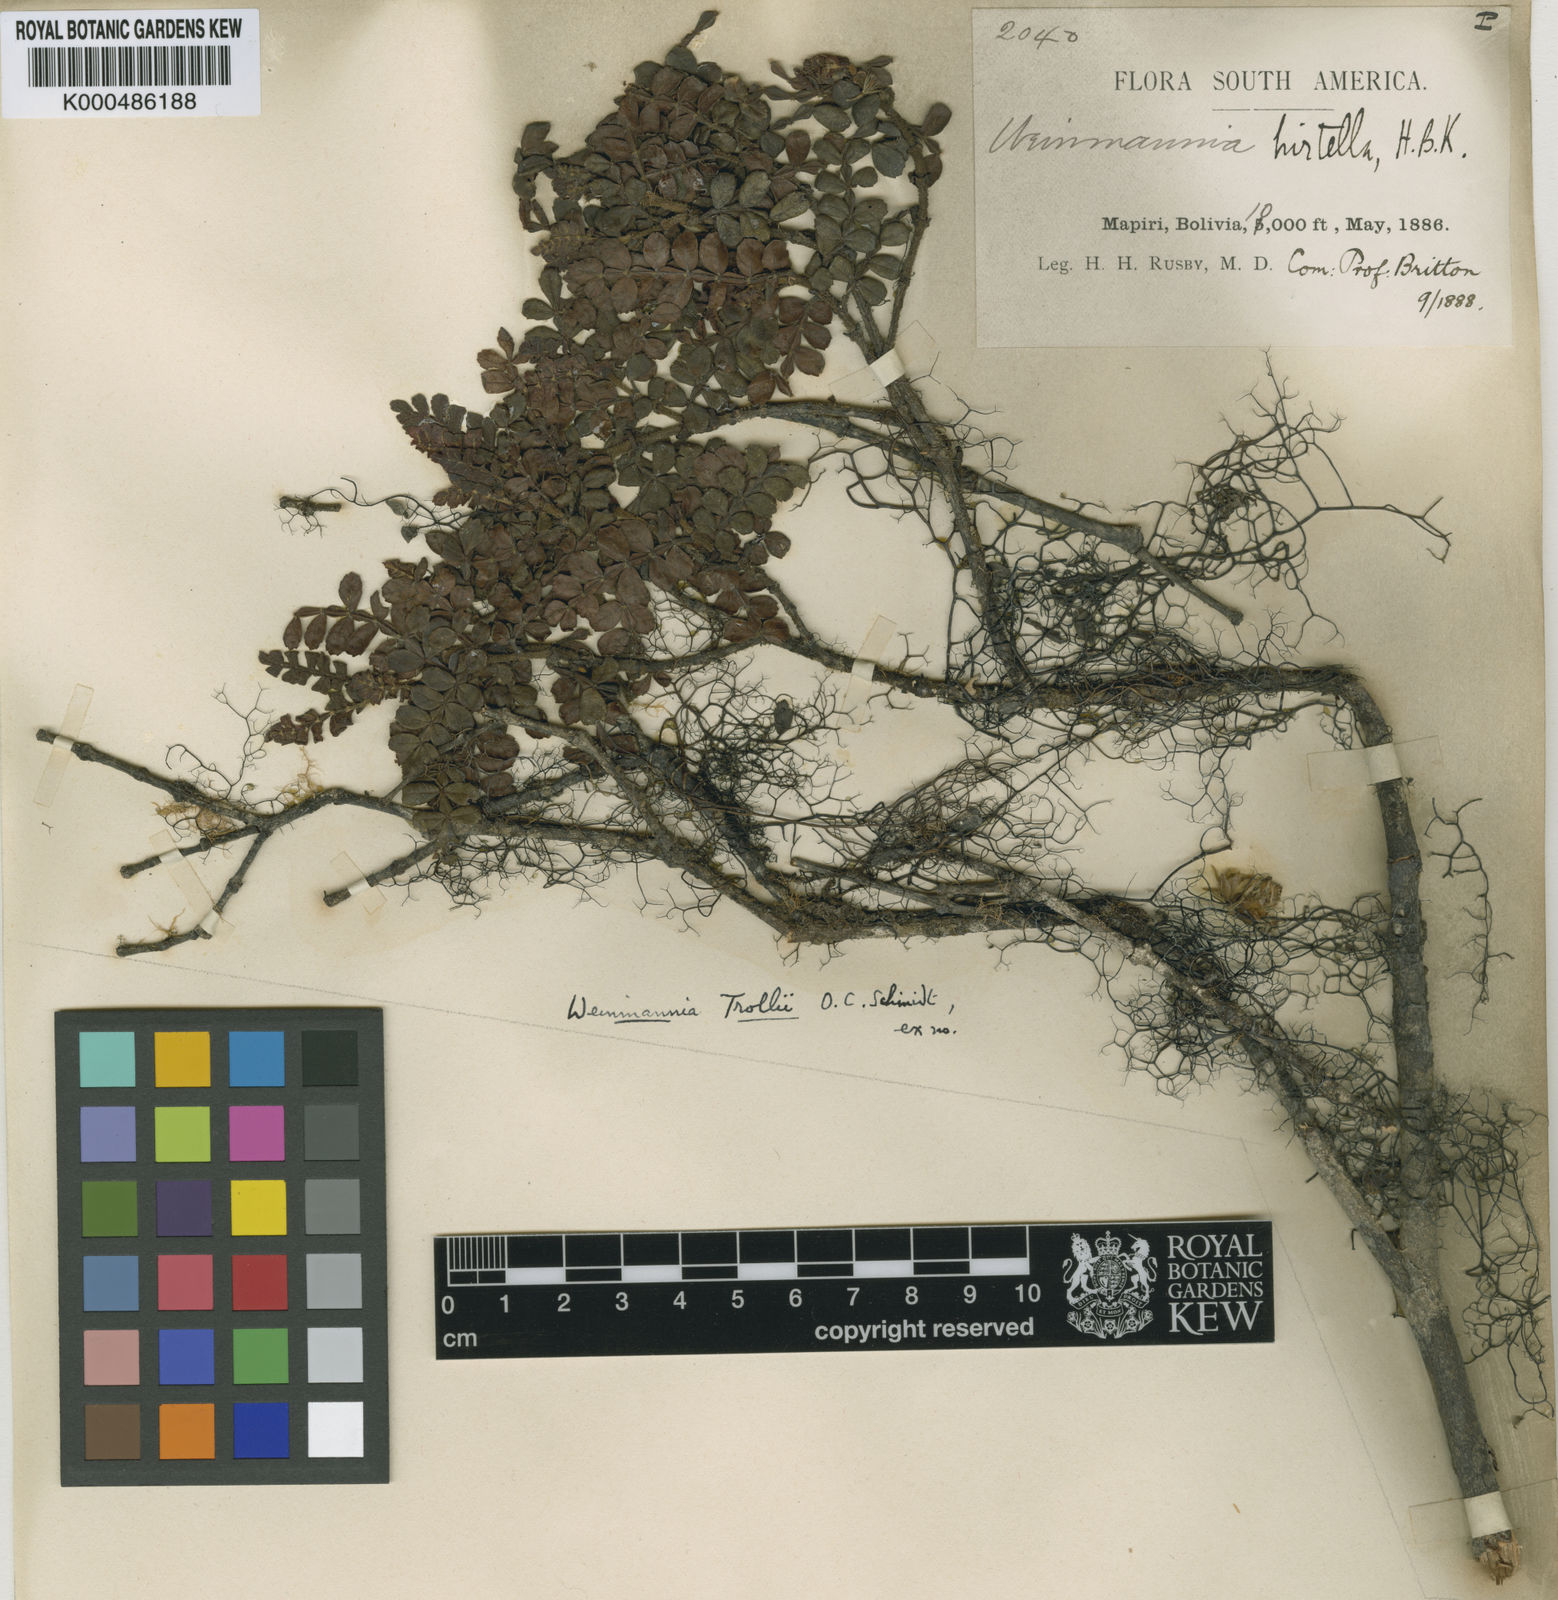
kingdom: Plantae
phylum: Tracheophyta
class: Magnoliopsida
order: Oxalidales
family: Cunoniaceae
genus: Weinmannia
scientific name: Weinmannia fagaroides
